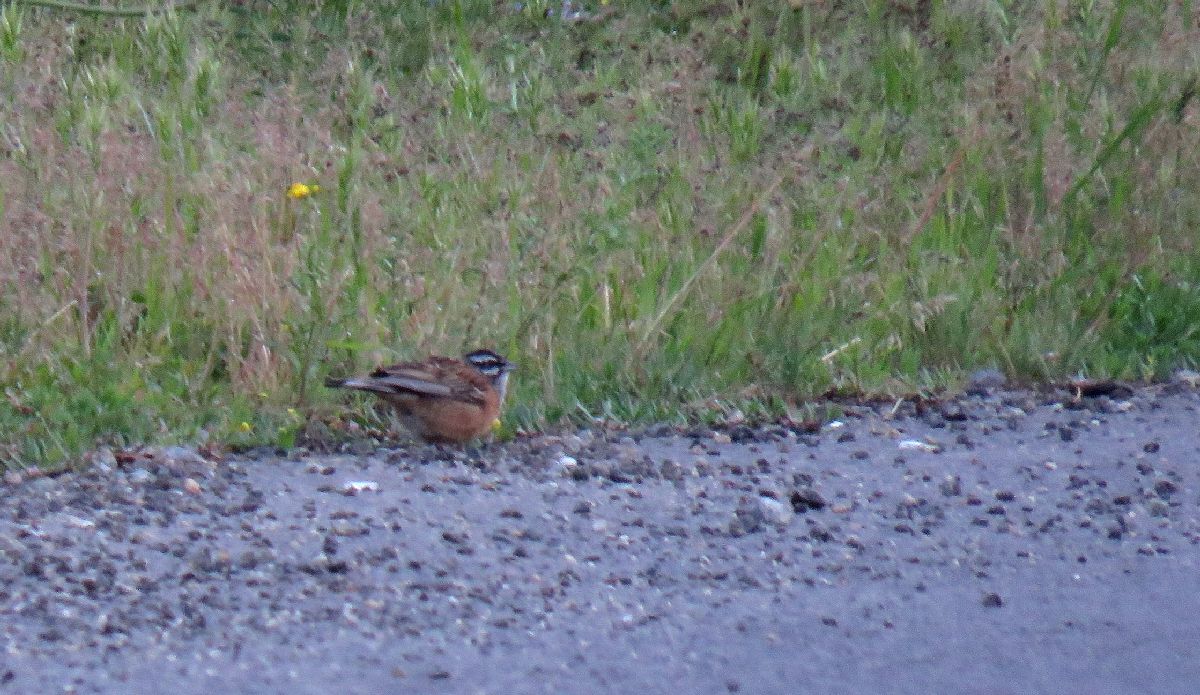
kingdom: Animalia
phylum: Chordata
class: Aves
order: Passeriformes
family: Emberizidae
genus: Emberiza
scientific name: Emberiza cia
